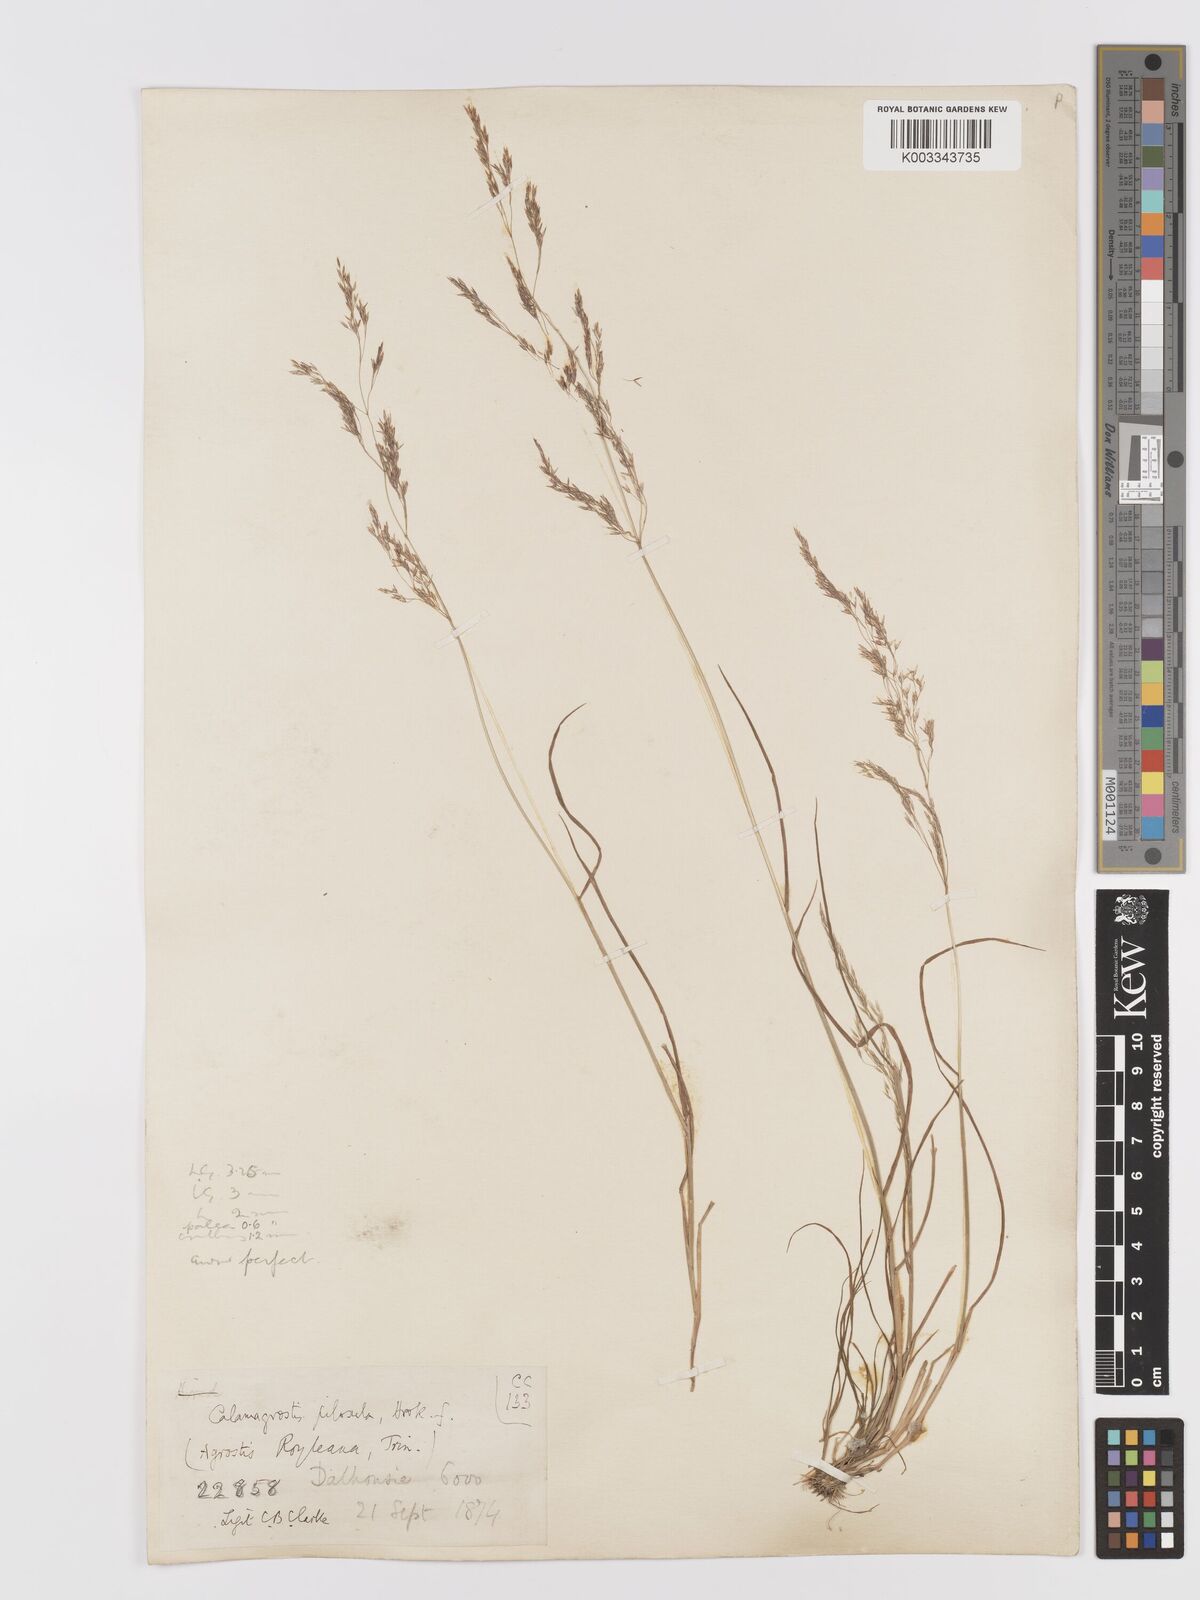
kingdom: Plantae
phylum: Tracheophyta
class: Liliopsida
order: Poales
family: Poaceae
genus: Agrostis
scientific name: Agrostis pilosula
